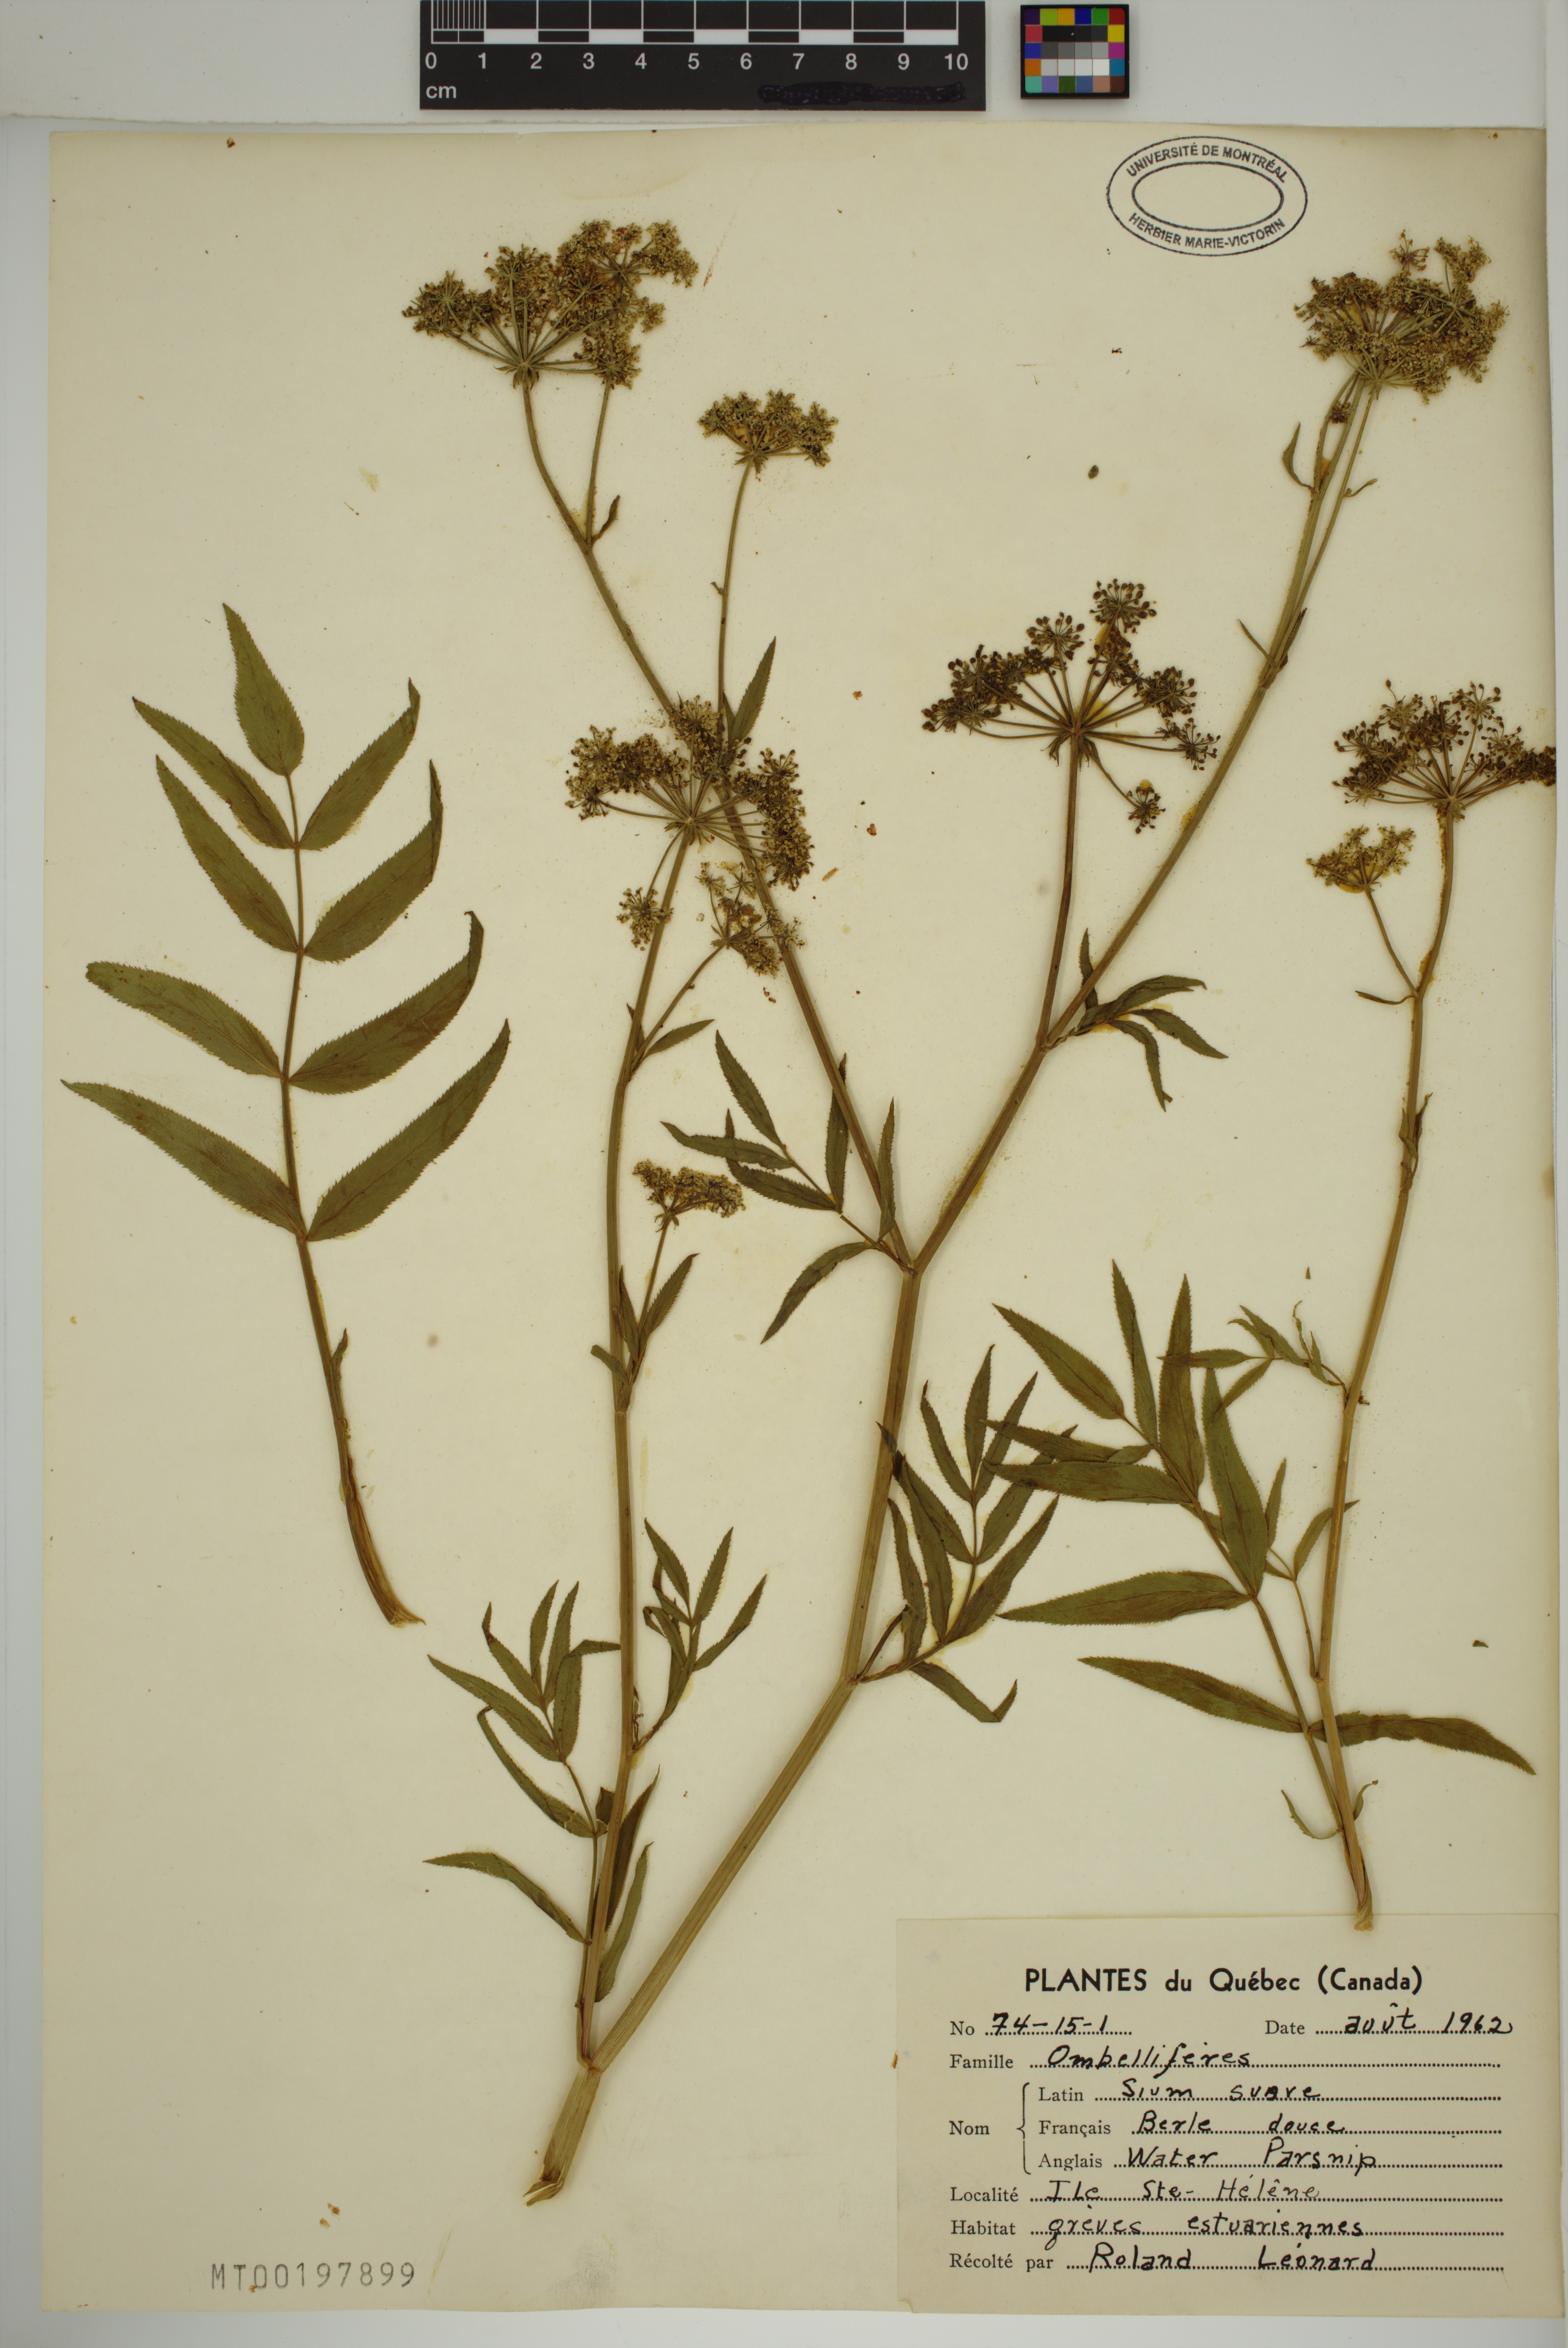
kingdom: Plantae
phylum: Tracheophyta
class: Magnoliopsida
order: Apiales
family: Apiaceae
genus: Sium
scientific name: Sium suave
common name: Hemlock water-parsnip
